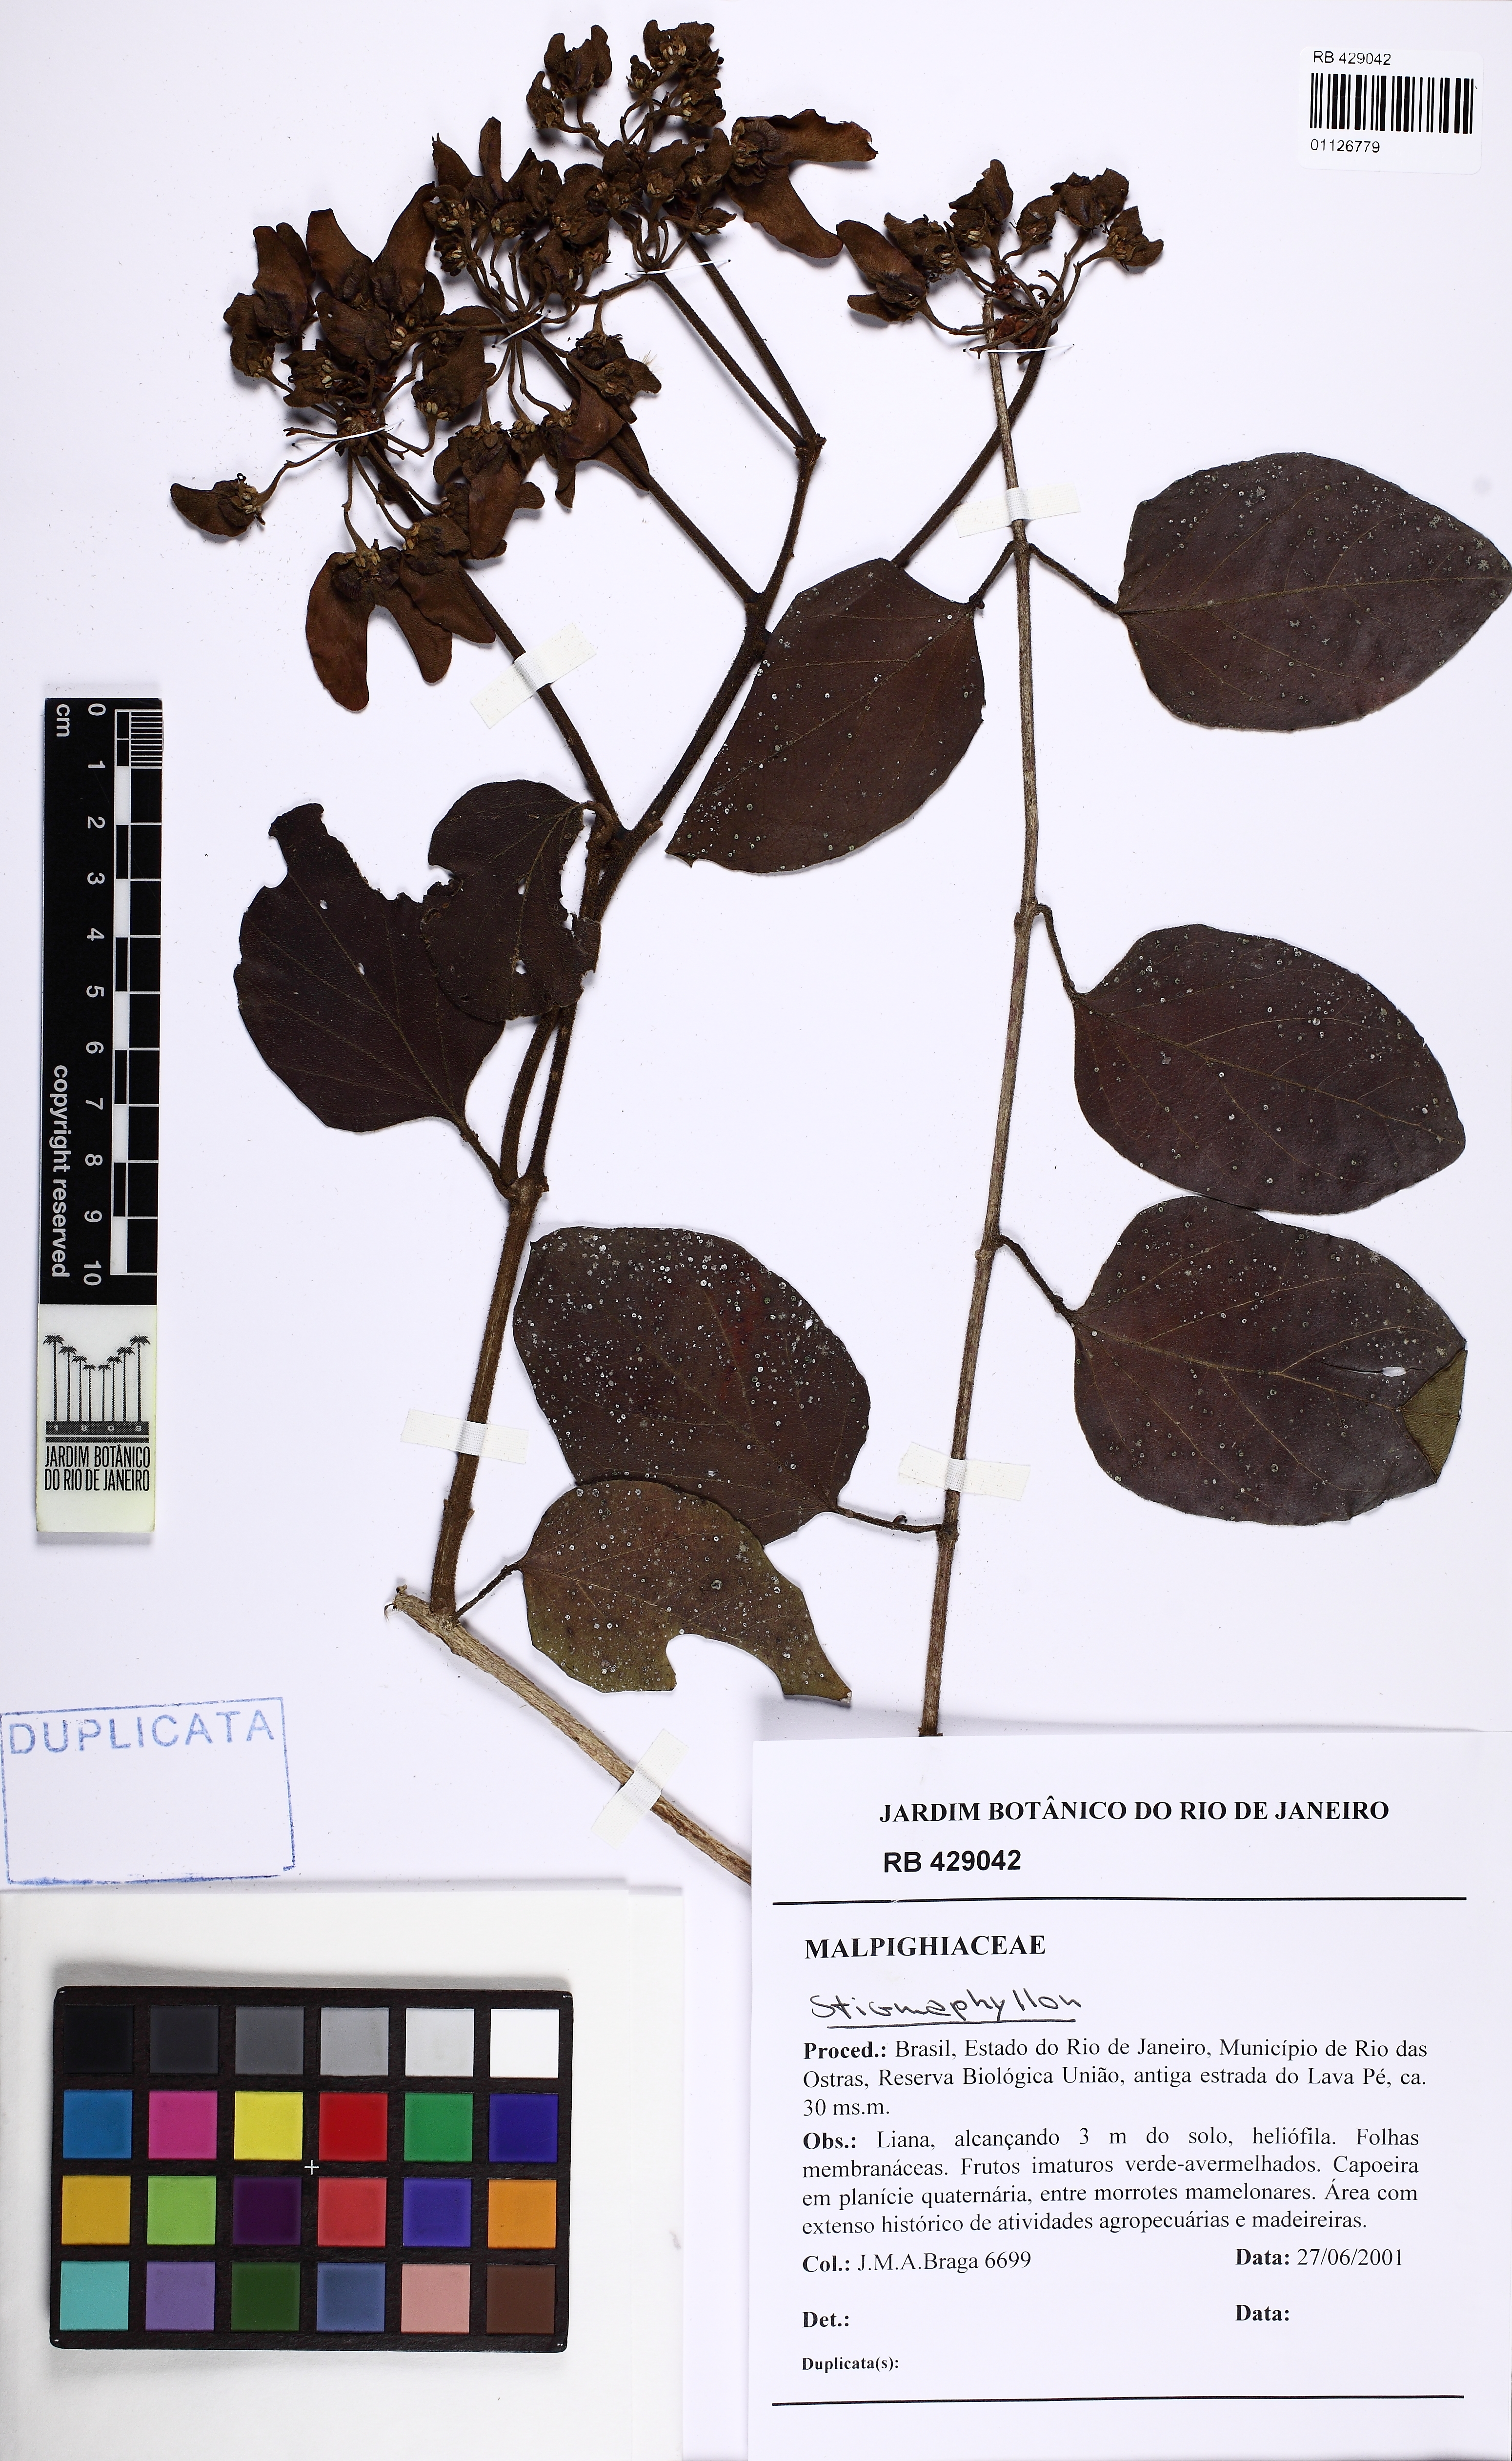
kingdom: Plantae
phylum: Tracheophyta
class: Magnoliopsida
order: Malpighiales
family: Malpighiaceae
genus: Stigmaphyllon
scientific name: Stigmaphyllon
